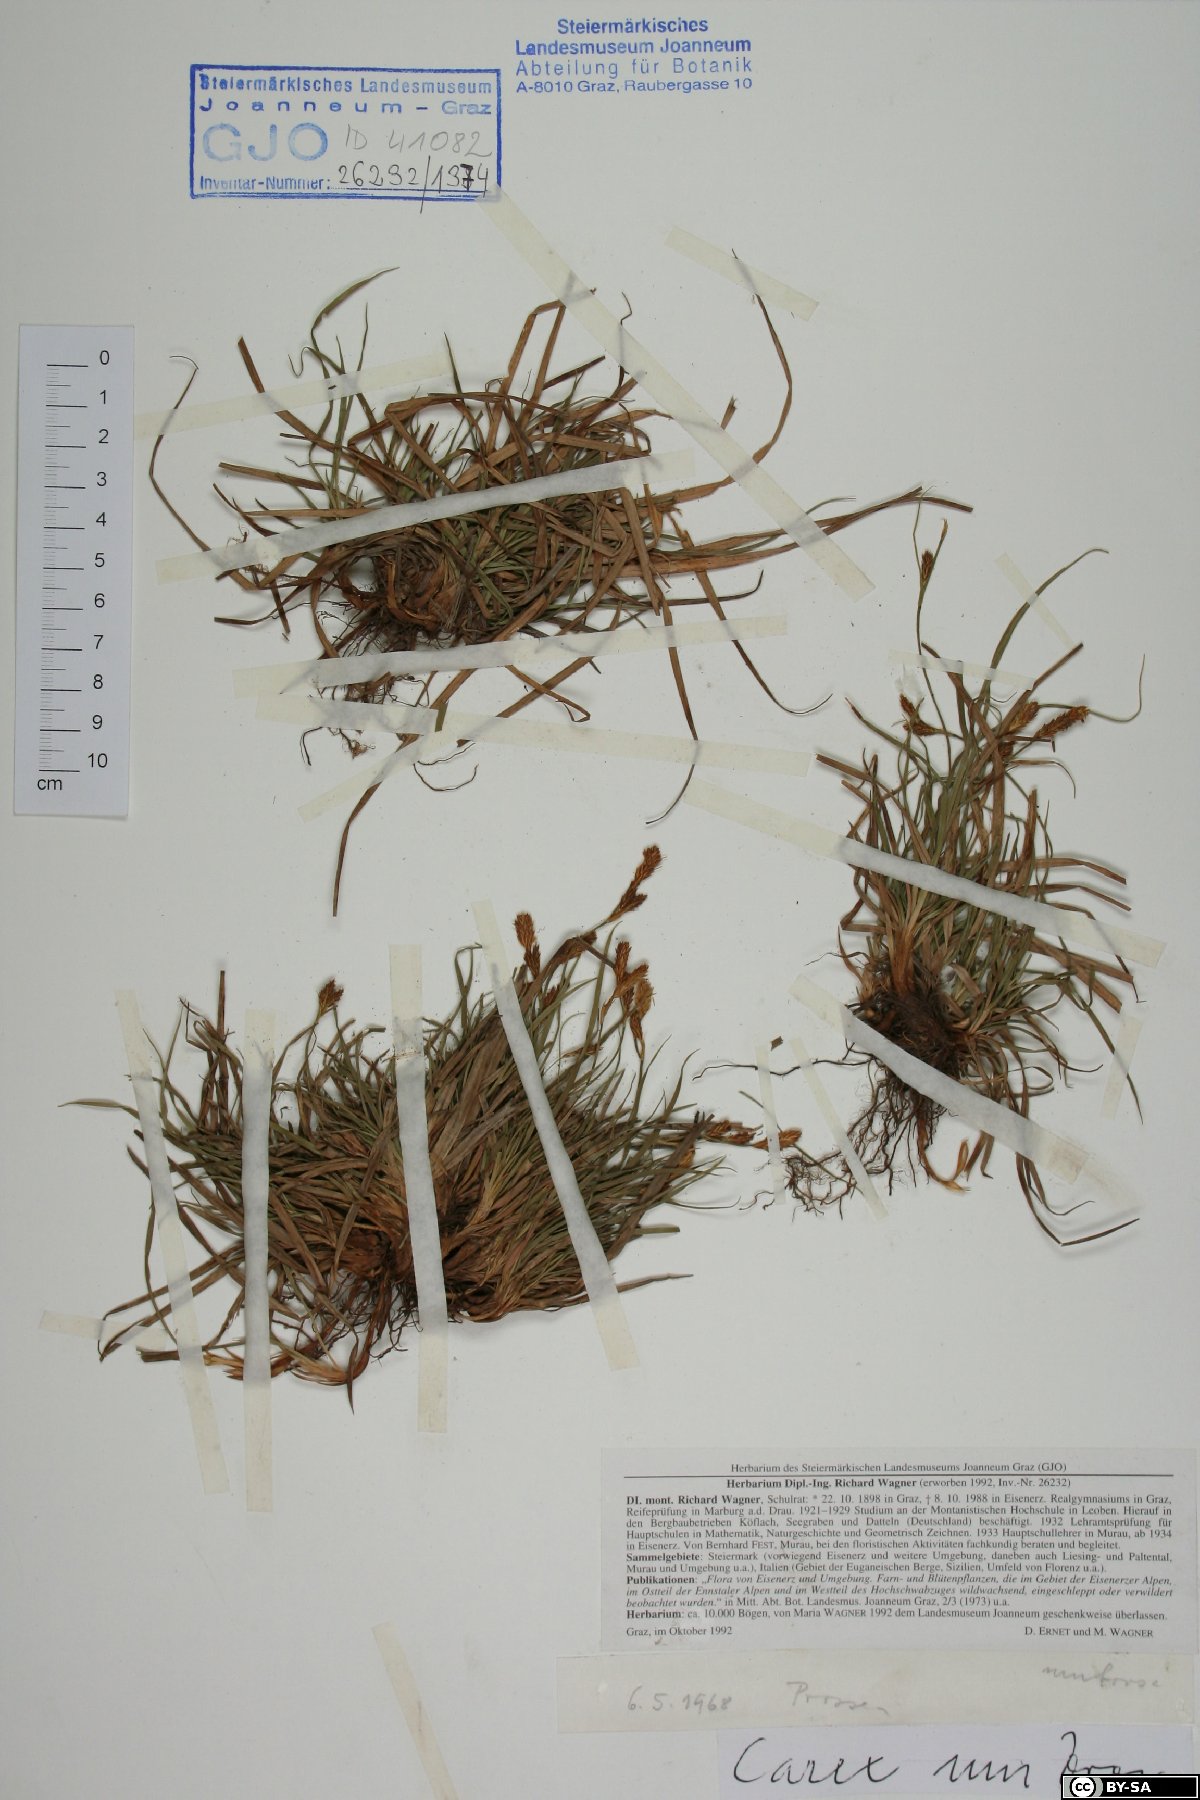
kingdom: Plantae
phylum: Tracheophyta
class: Liliopsida
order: Poales
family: Cyperaceae
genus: Carex
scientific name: Carex umbrosa
